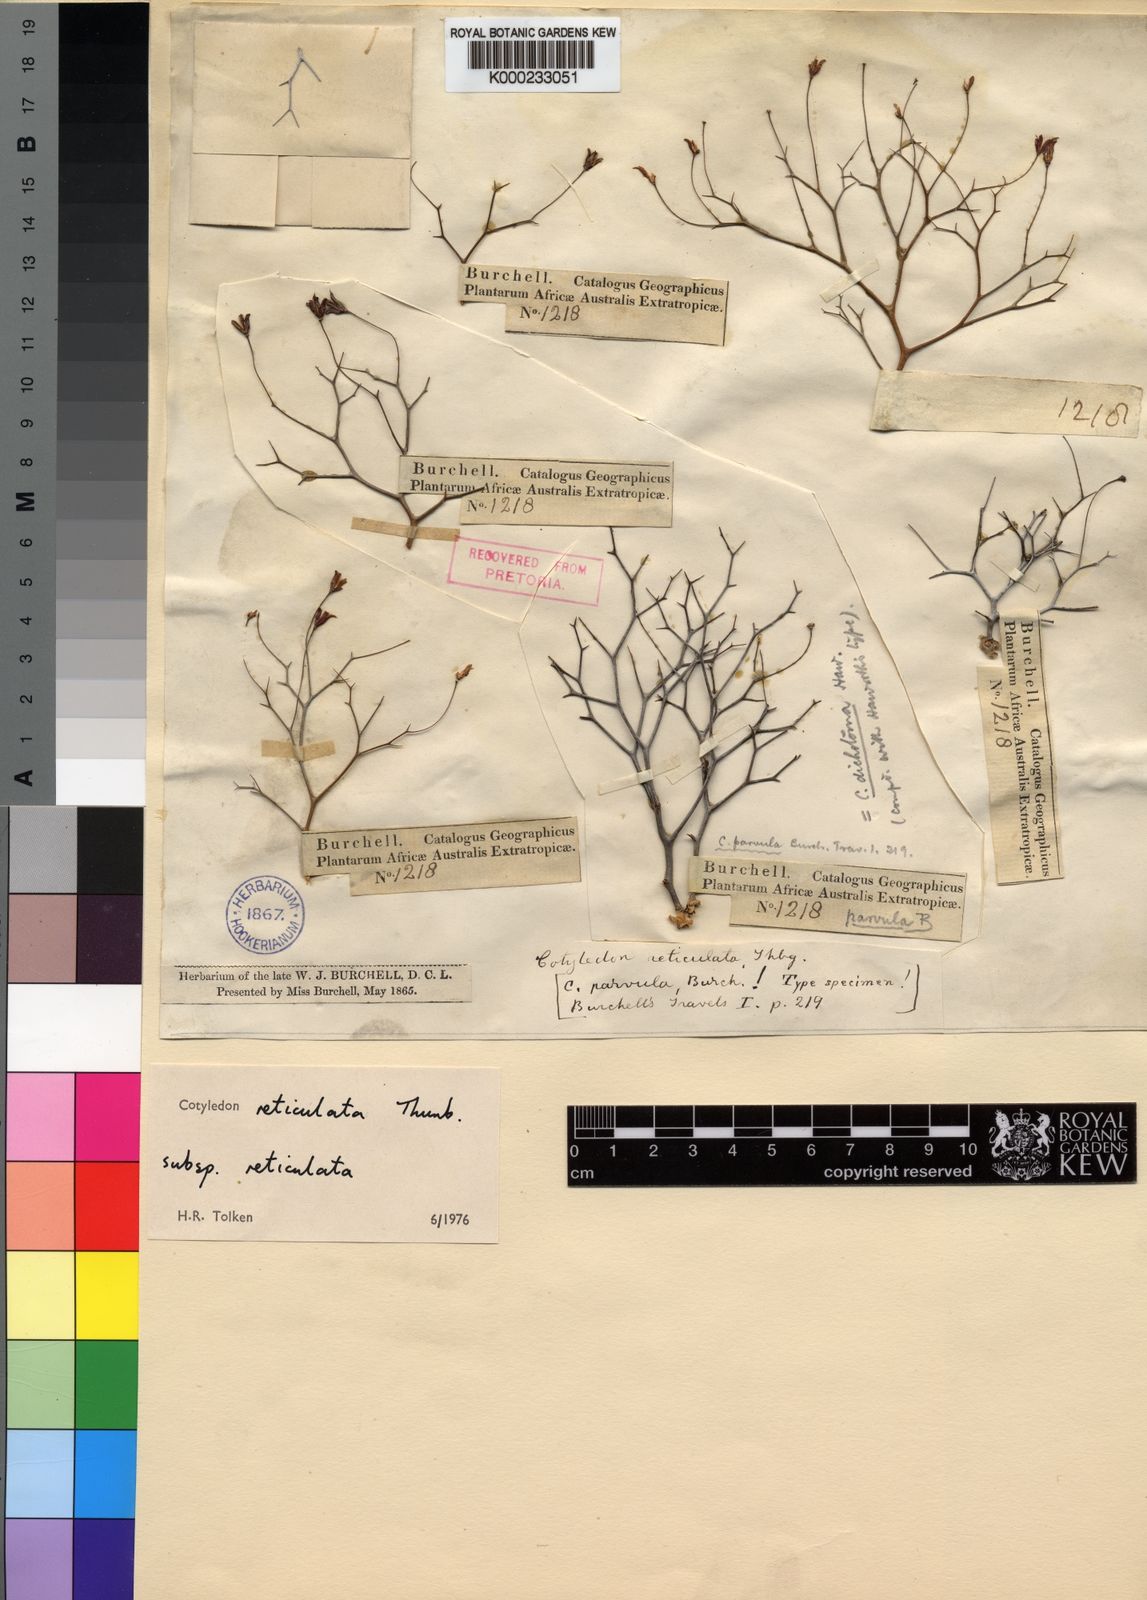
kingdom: Plantae
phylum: Tracheophyta
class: Magnoliopsida
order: Saxifragales
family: Crassulaceae
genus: Tylecodon
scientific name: Tylecodon reticulatus
